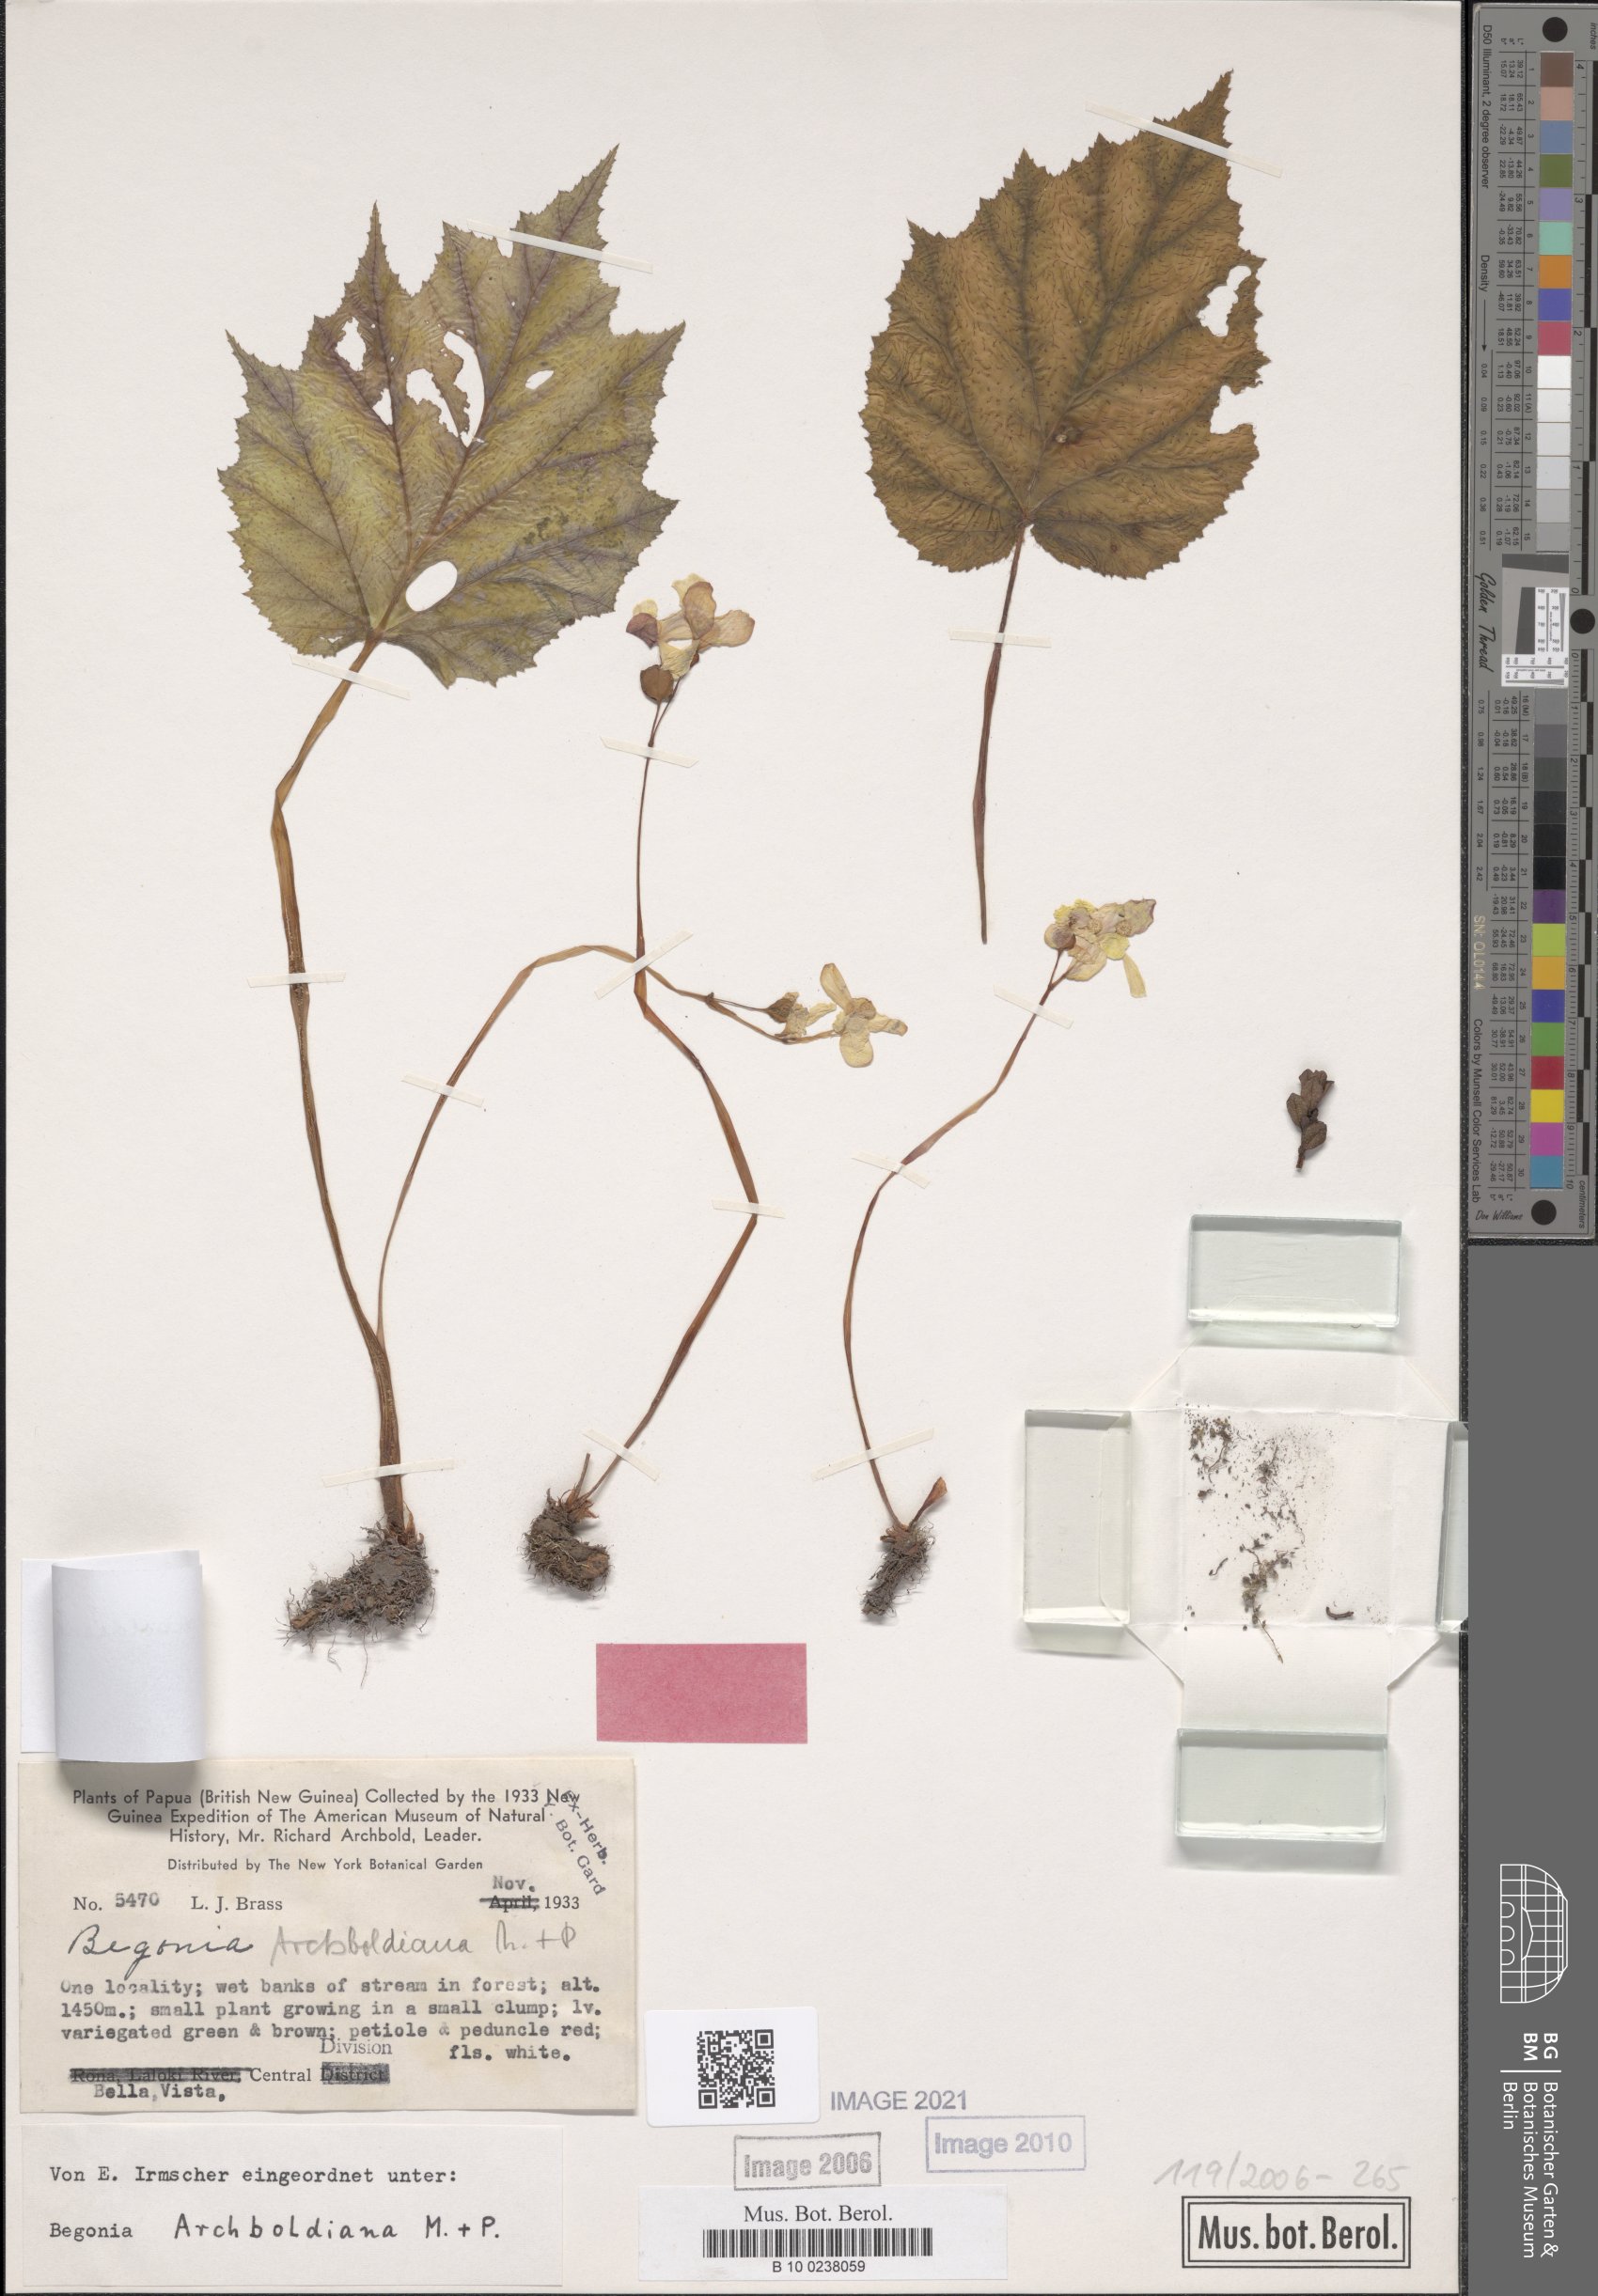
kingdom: Plantae
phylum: Tracheophyta
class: Magnoliopsida
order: Cucurbitales
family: Begoniaceae
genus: Begonia
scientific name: Begonia archboldiana
